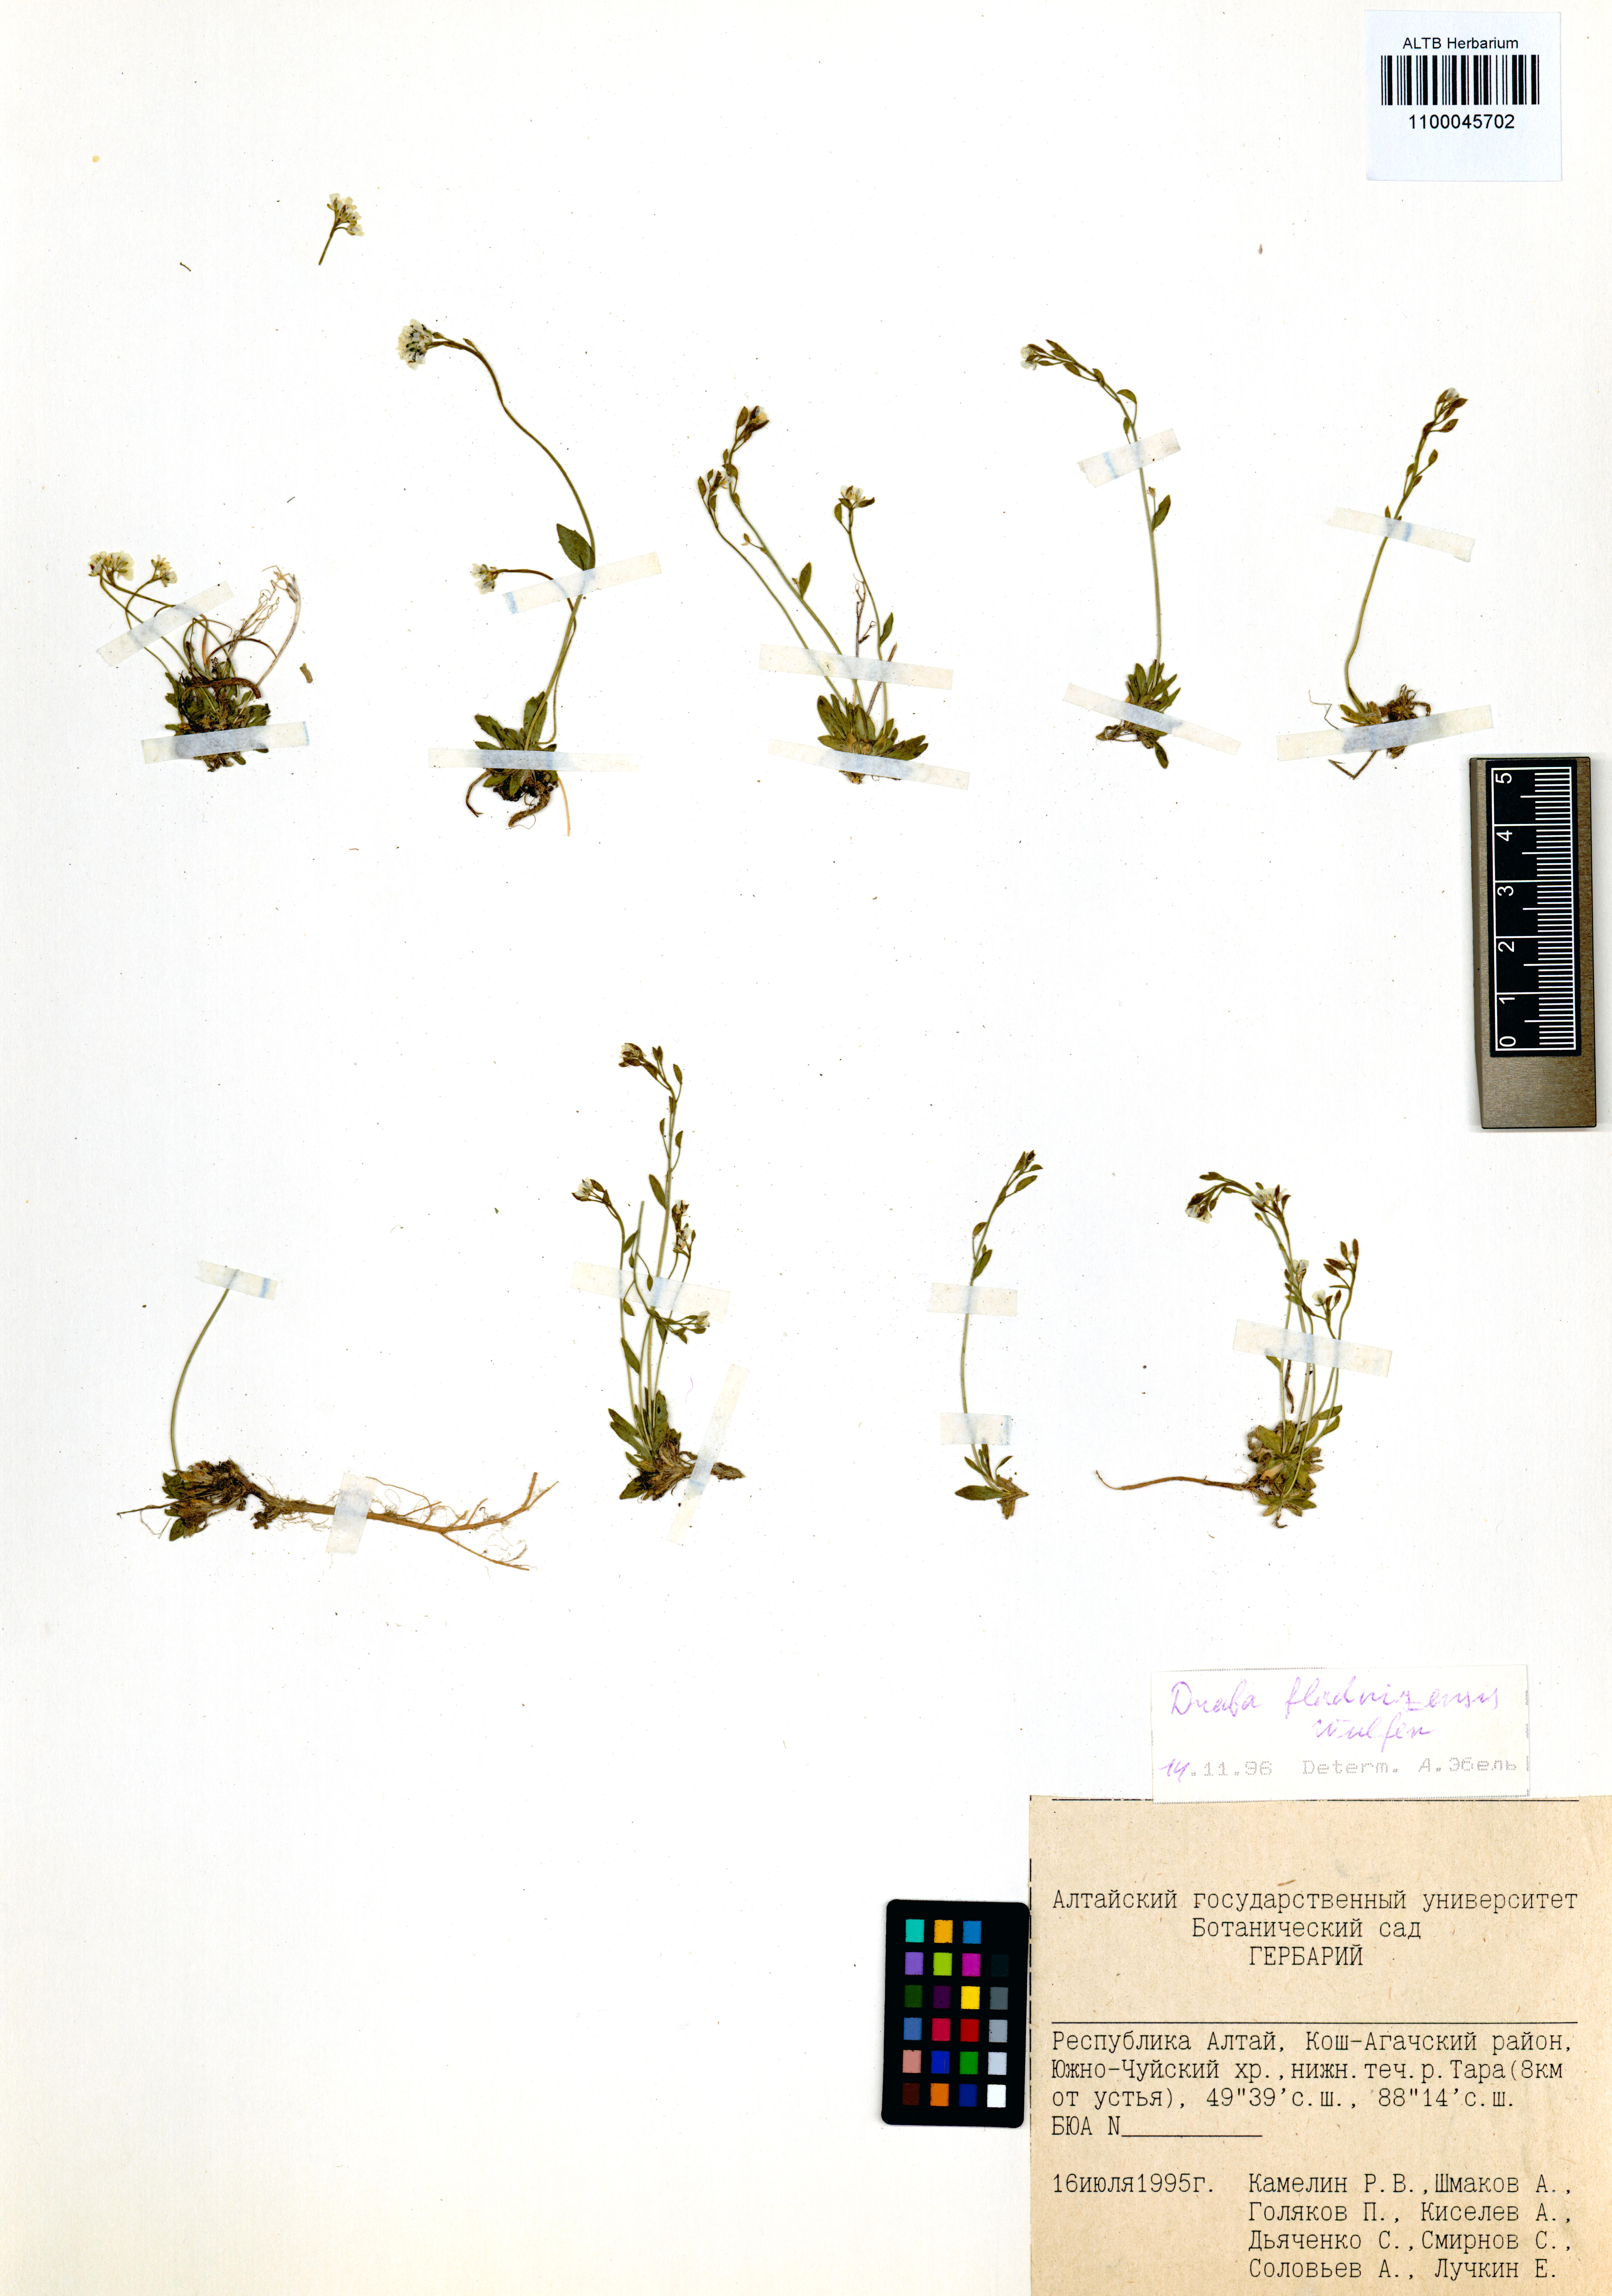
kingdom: Plantae
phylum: Tracheophyta
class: Magnoliopsida
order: Brassicales
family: Brassicaceae
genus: Draba
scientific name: Draba fladnizensis
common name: Austrian draba
